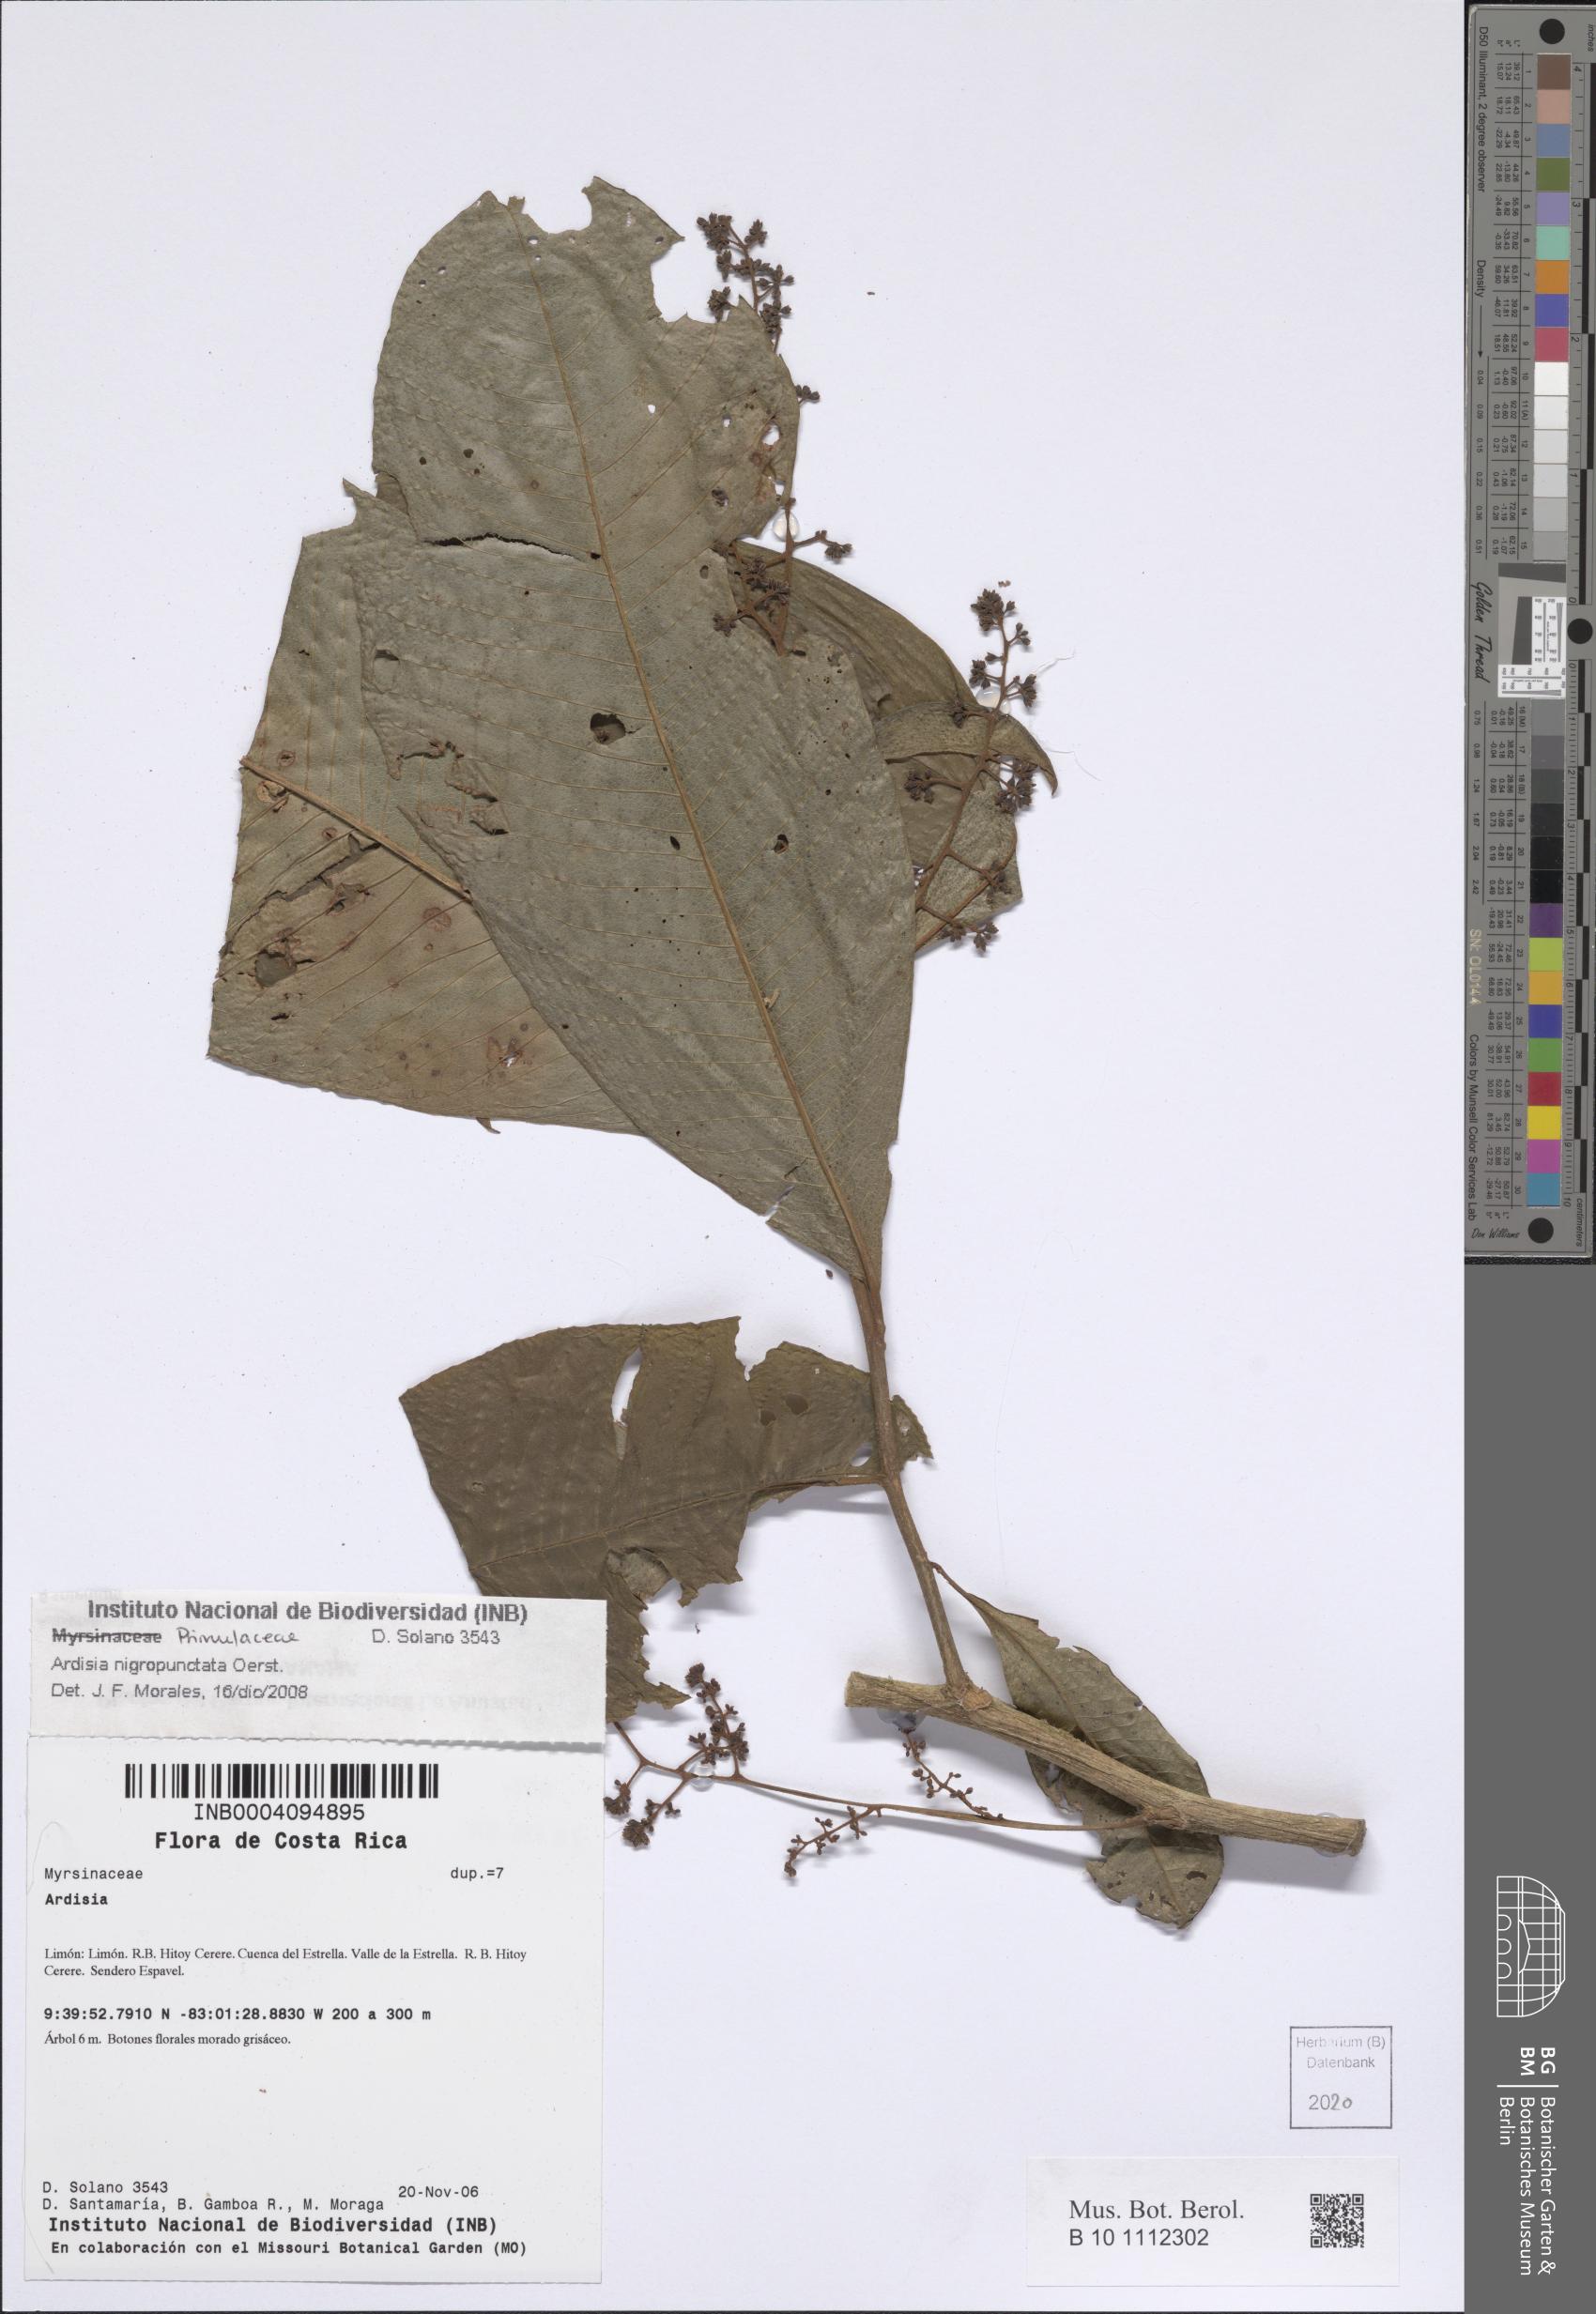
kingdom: Plantae
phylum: Tracheophyta
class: Magnoliopsida
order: Ericales
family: Primulaceae
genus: Ardisia
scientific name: Ardisia nigropunctata
